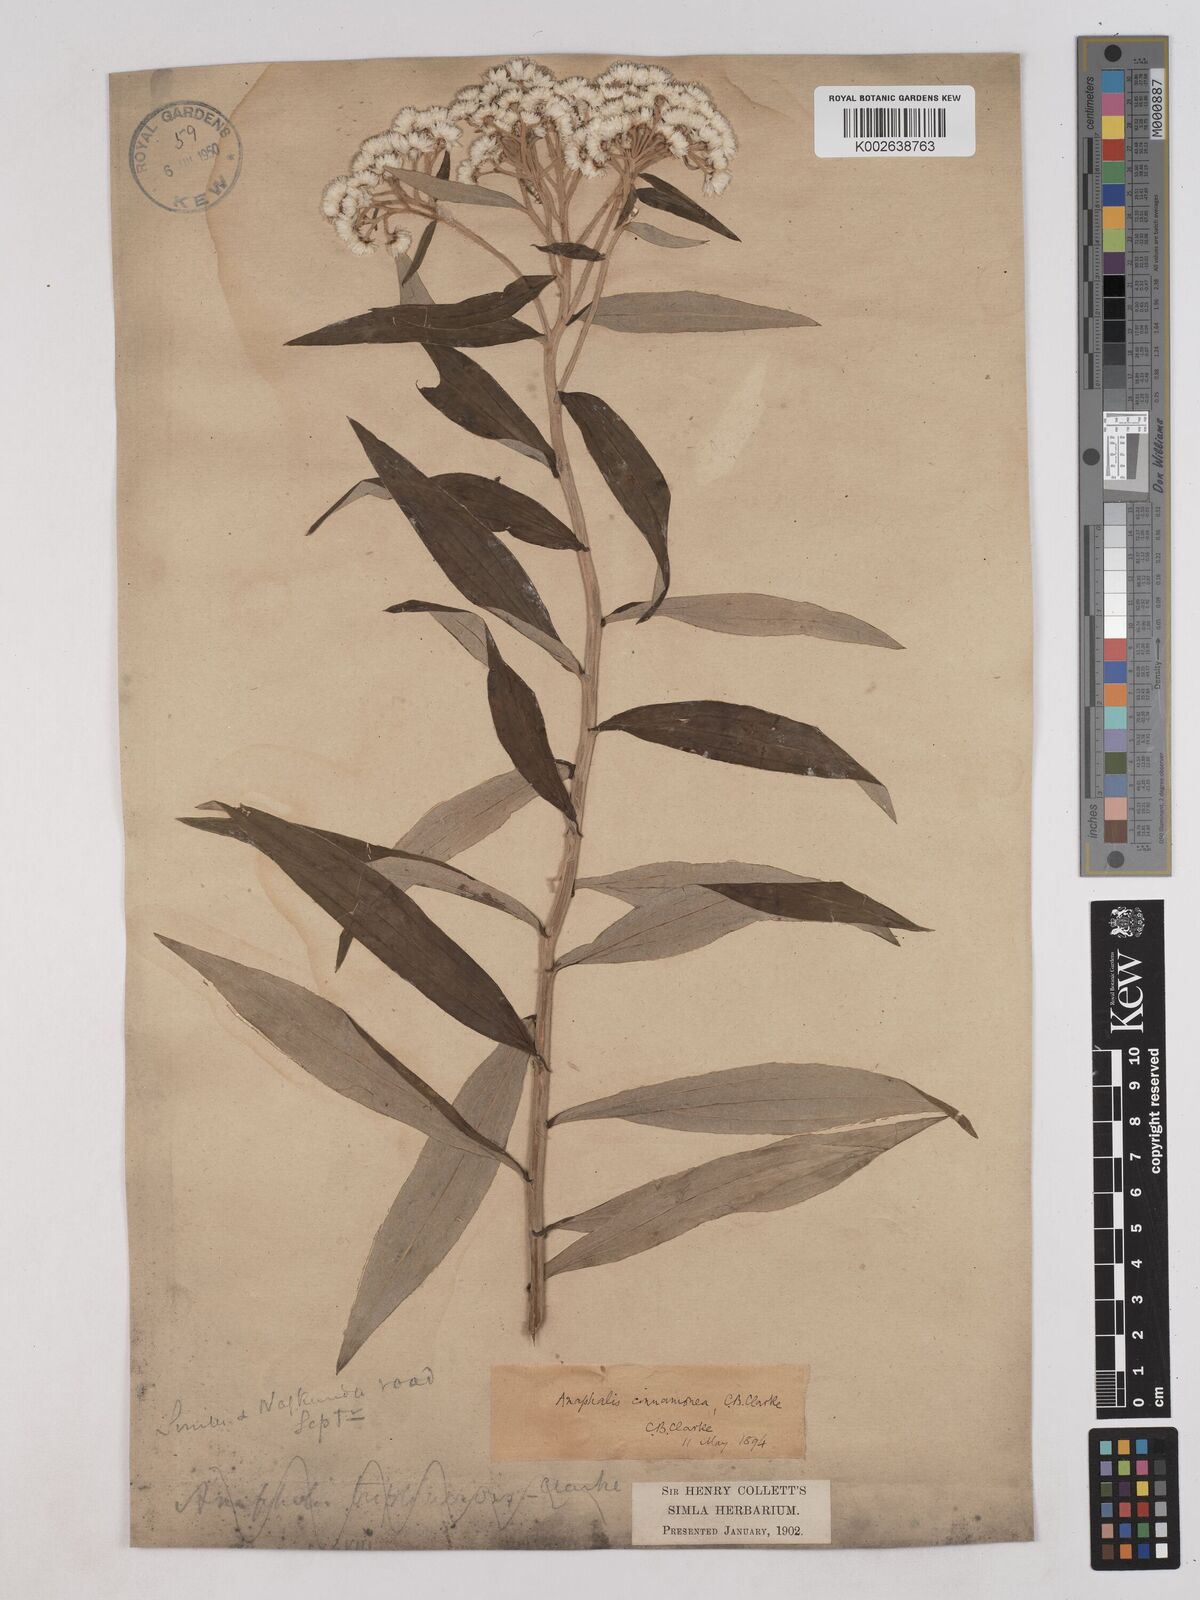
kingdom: Plantae
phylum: Tracheophyta
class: Magnoliopsida
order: Asterales
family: Asteraceae
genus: Anaphalis
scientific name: Anaphalis marcescens
